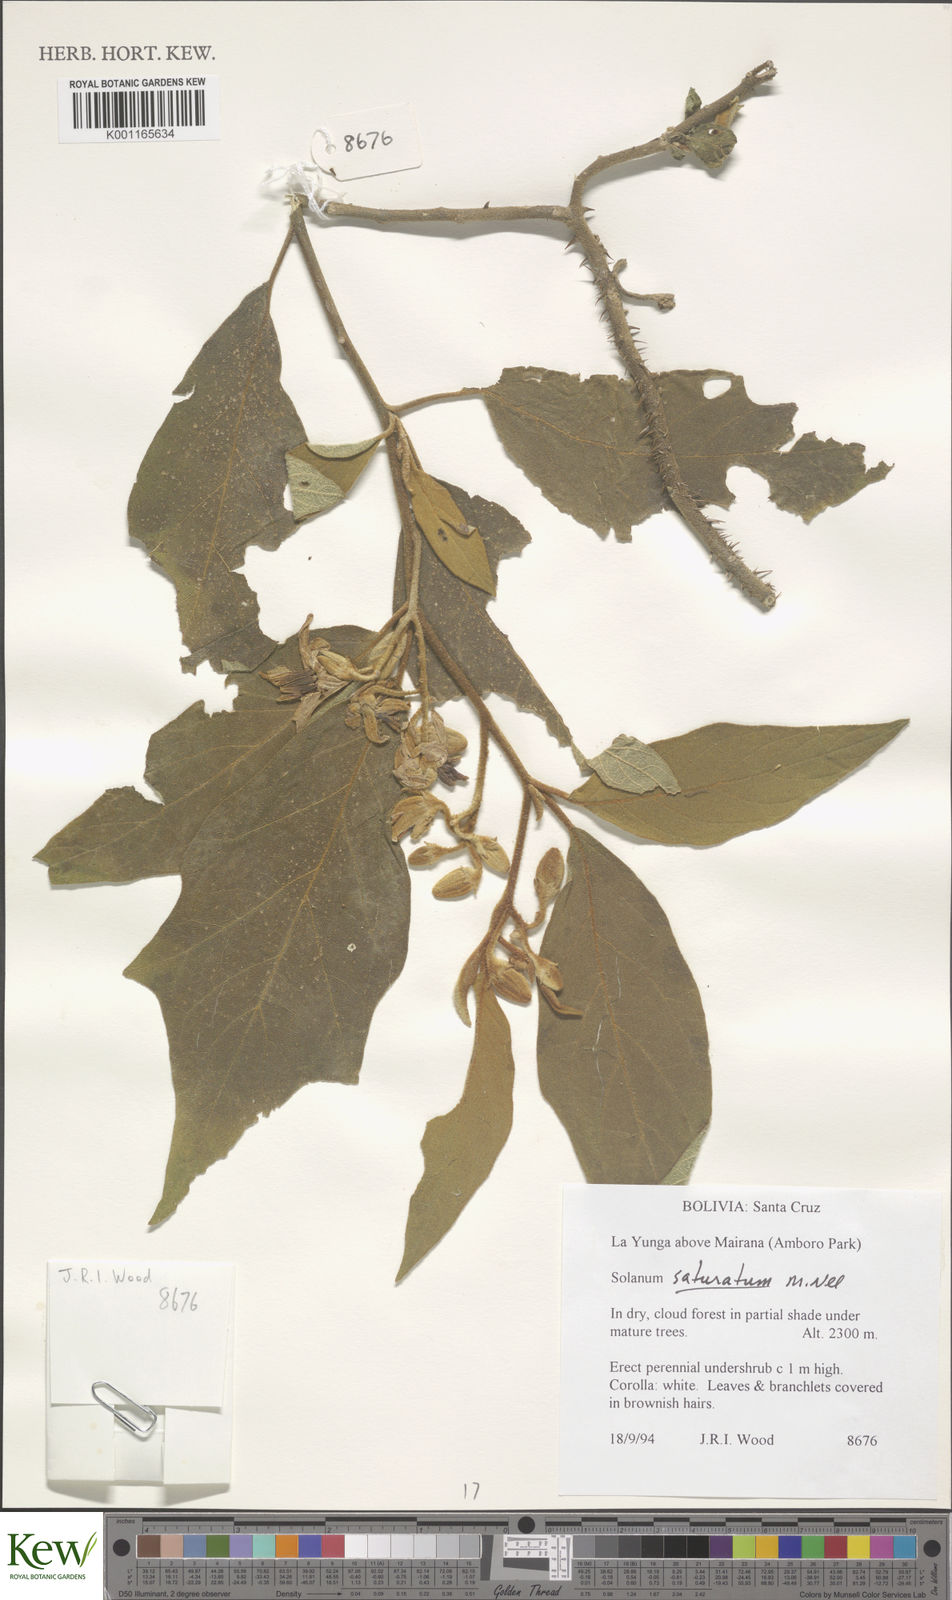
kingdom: Plantae
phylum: Tracheophyta
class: Magnoliopsida
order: Solanales
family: Solanaceae
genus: Solanum
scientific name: Solanum saturatum
